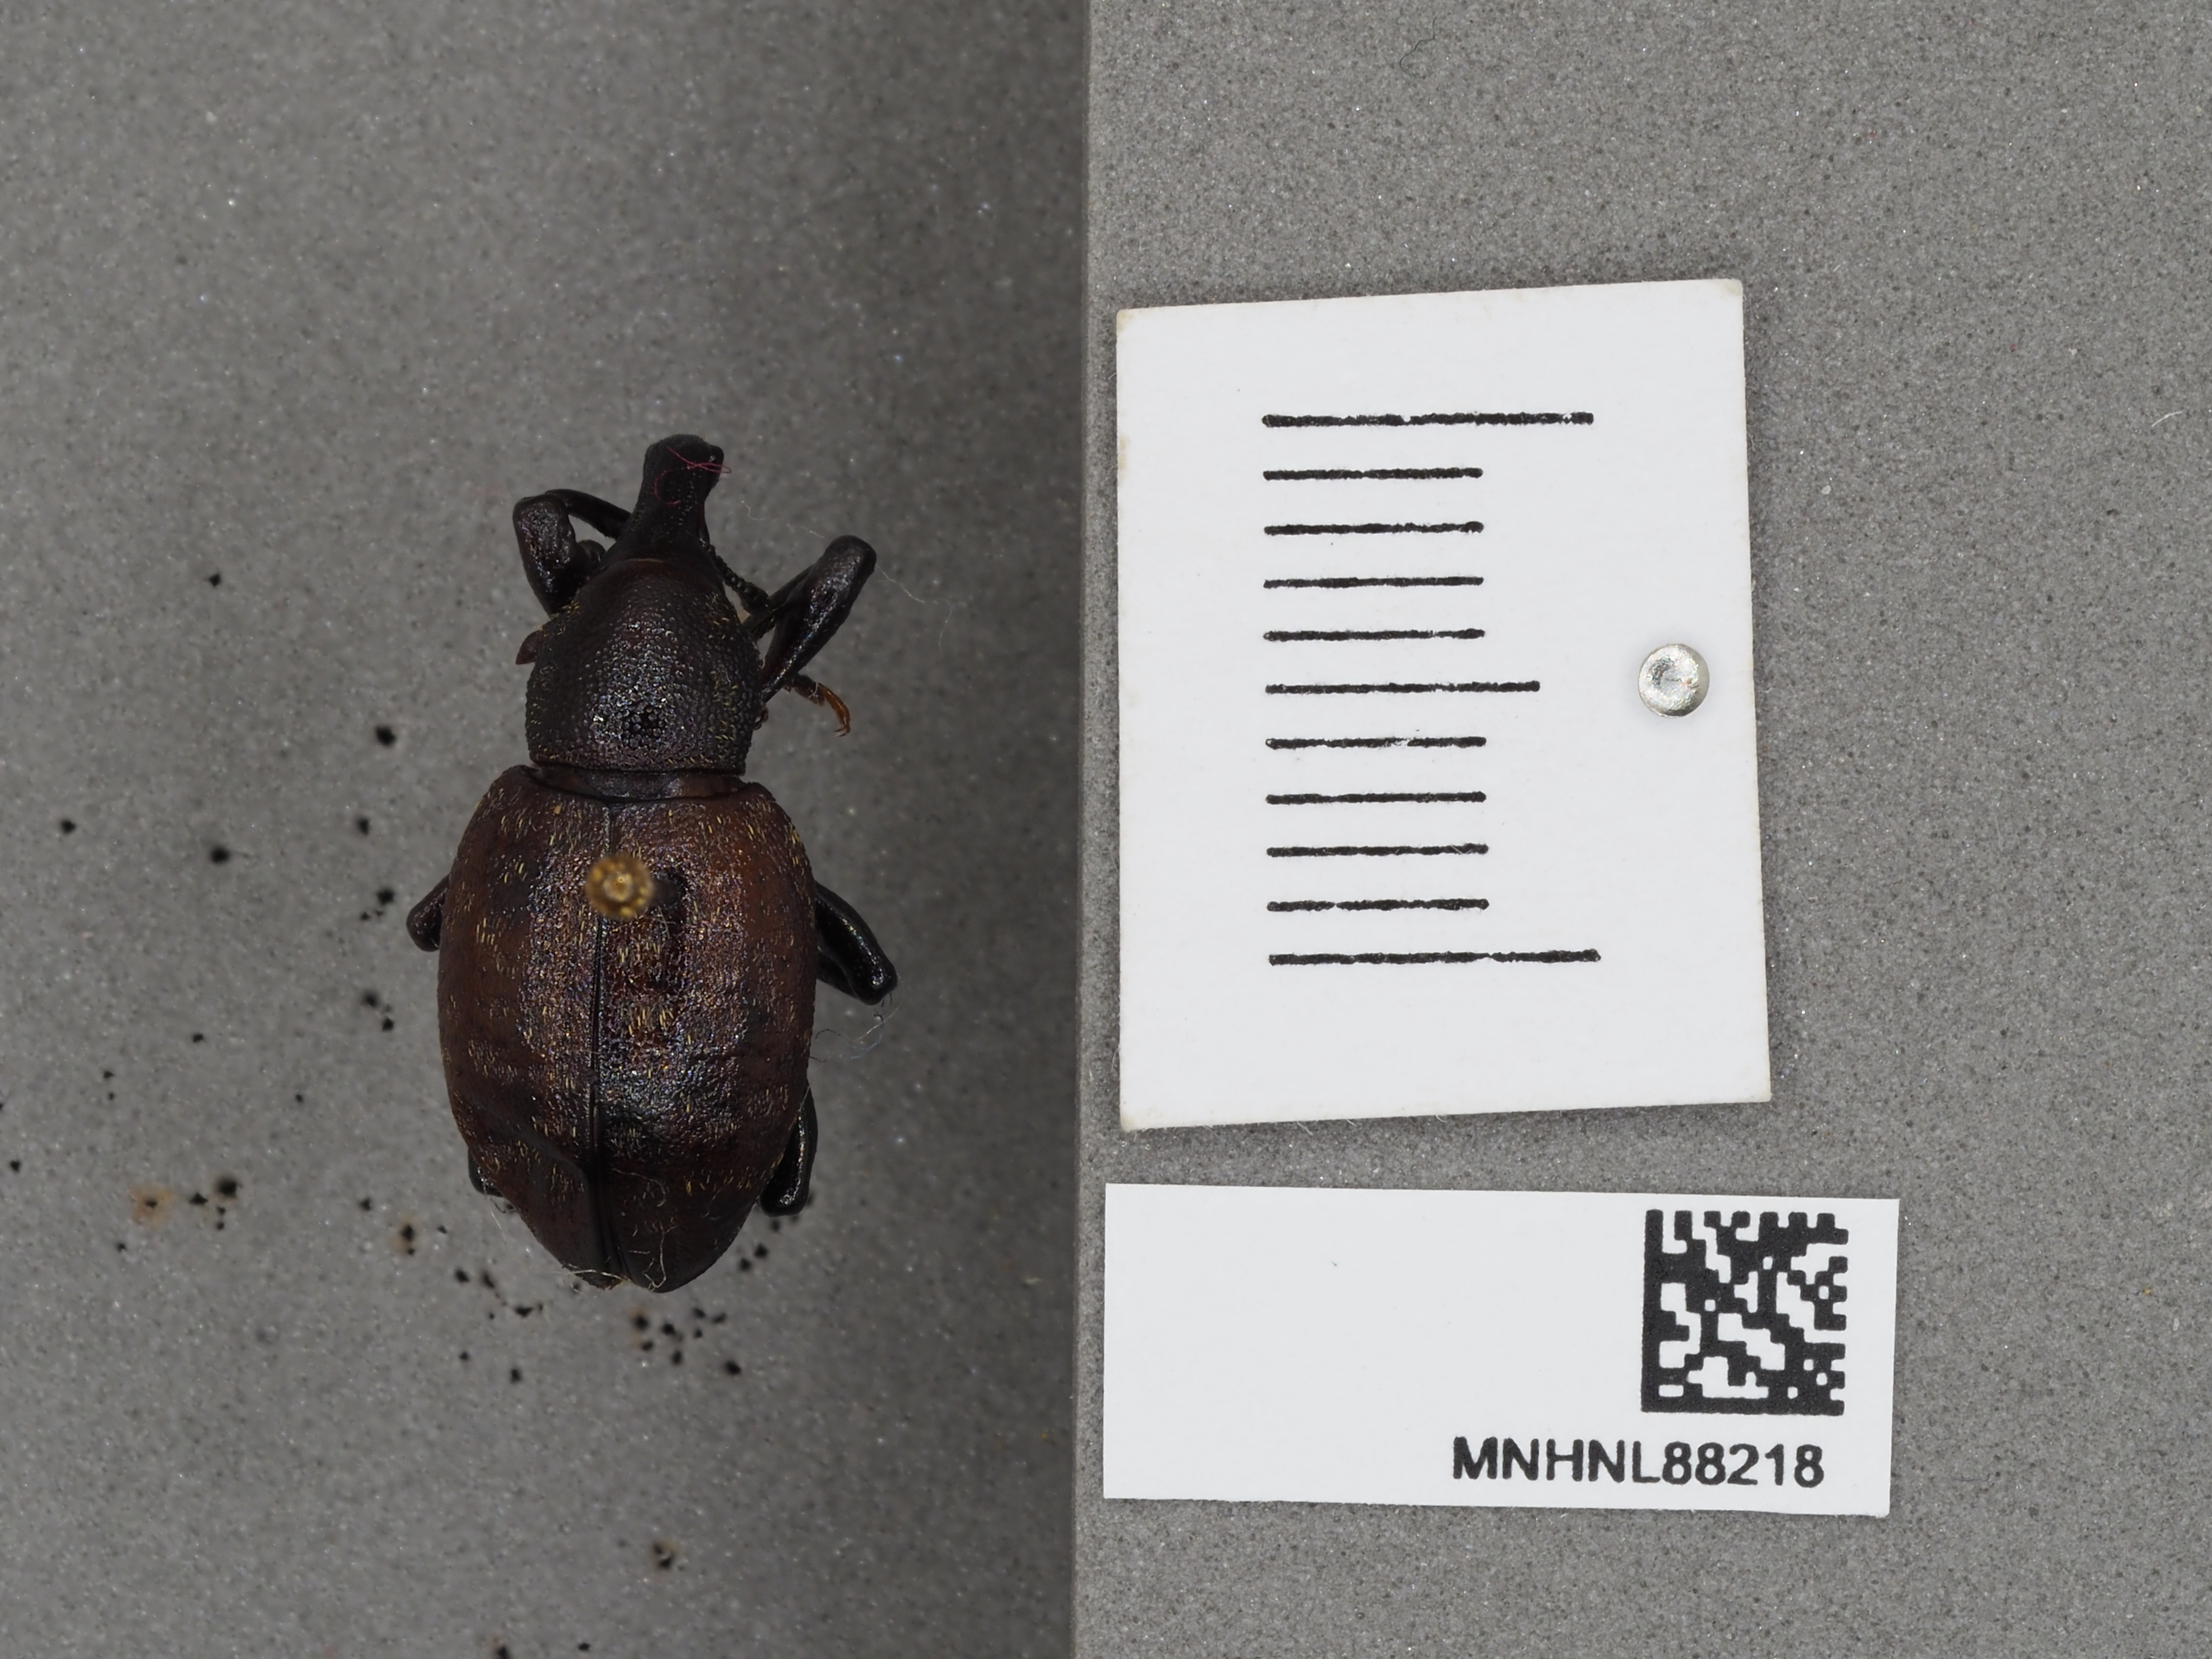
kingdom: Animalia
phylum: Arthropoda
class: Insecta
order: Coleoptera
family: Curculionidae
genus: Liparus
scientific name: Liparus glabrirostris
